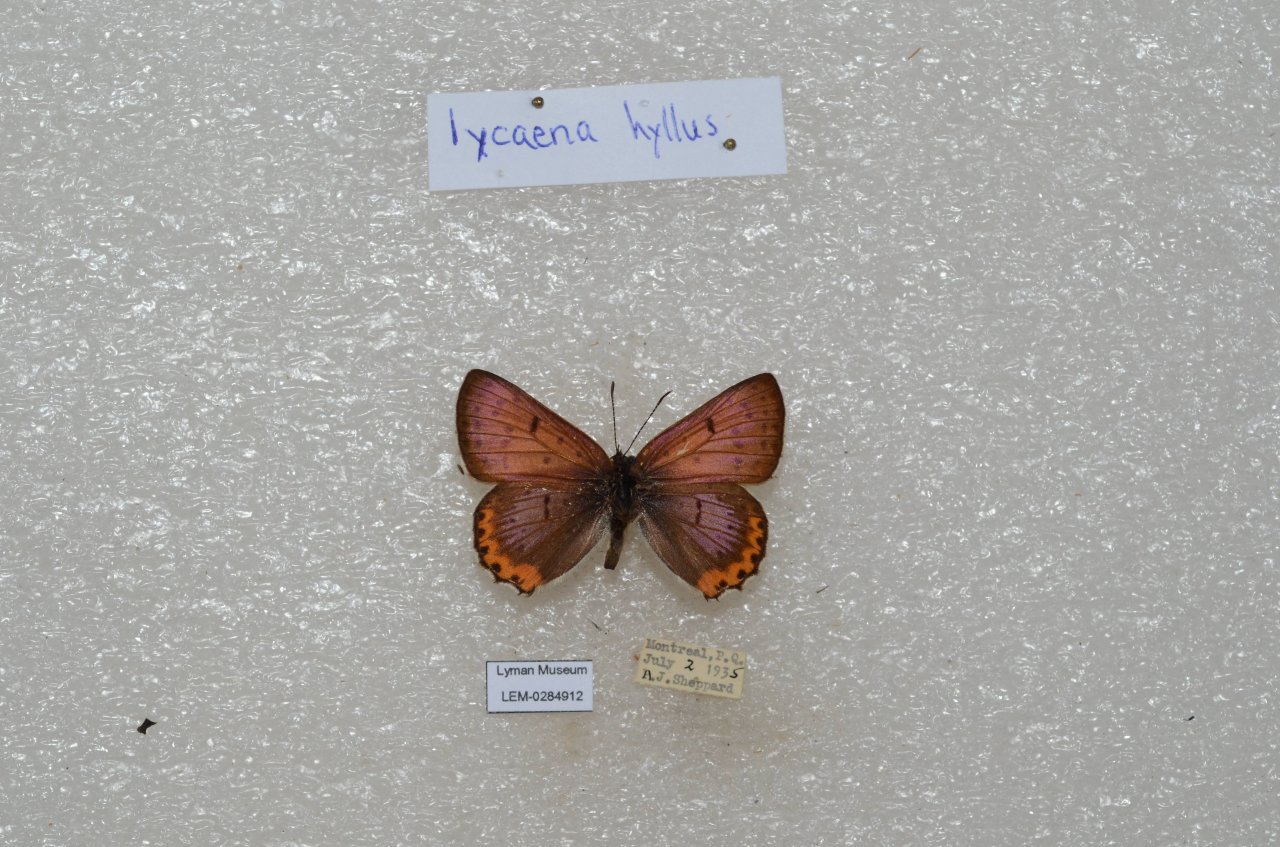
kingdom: Animalia
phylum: Arthropoda
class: Insecta
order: Lepidoptera
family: Sesiidae
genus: Sesia
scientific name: Sesia Lycaena hyllus
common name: Bronze Copper
